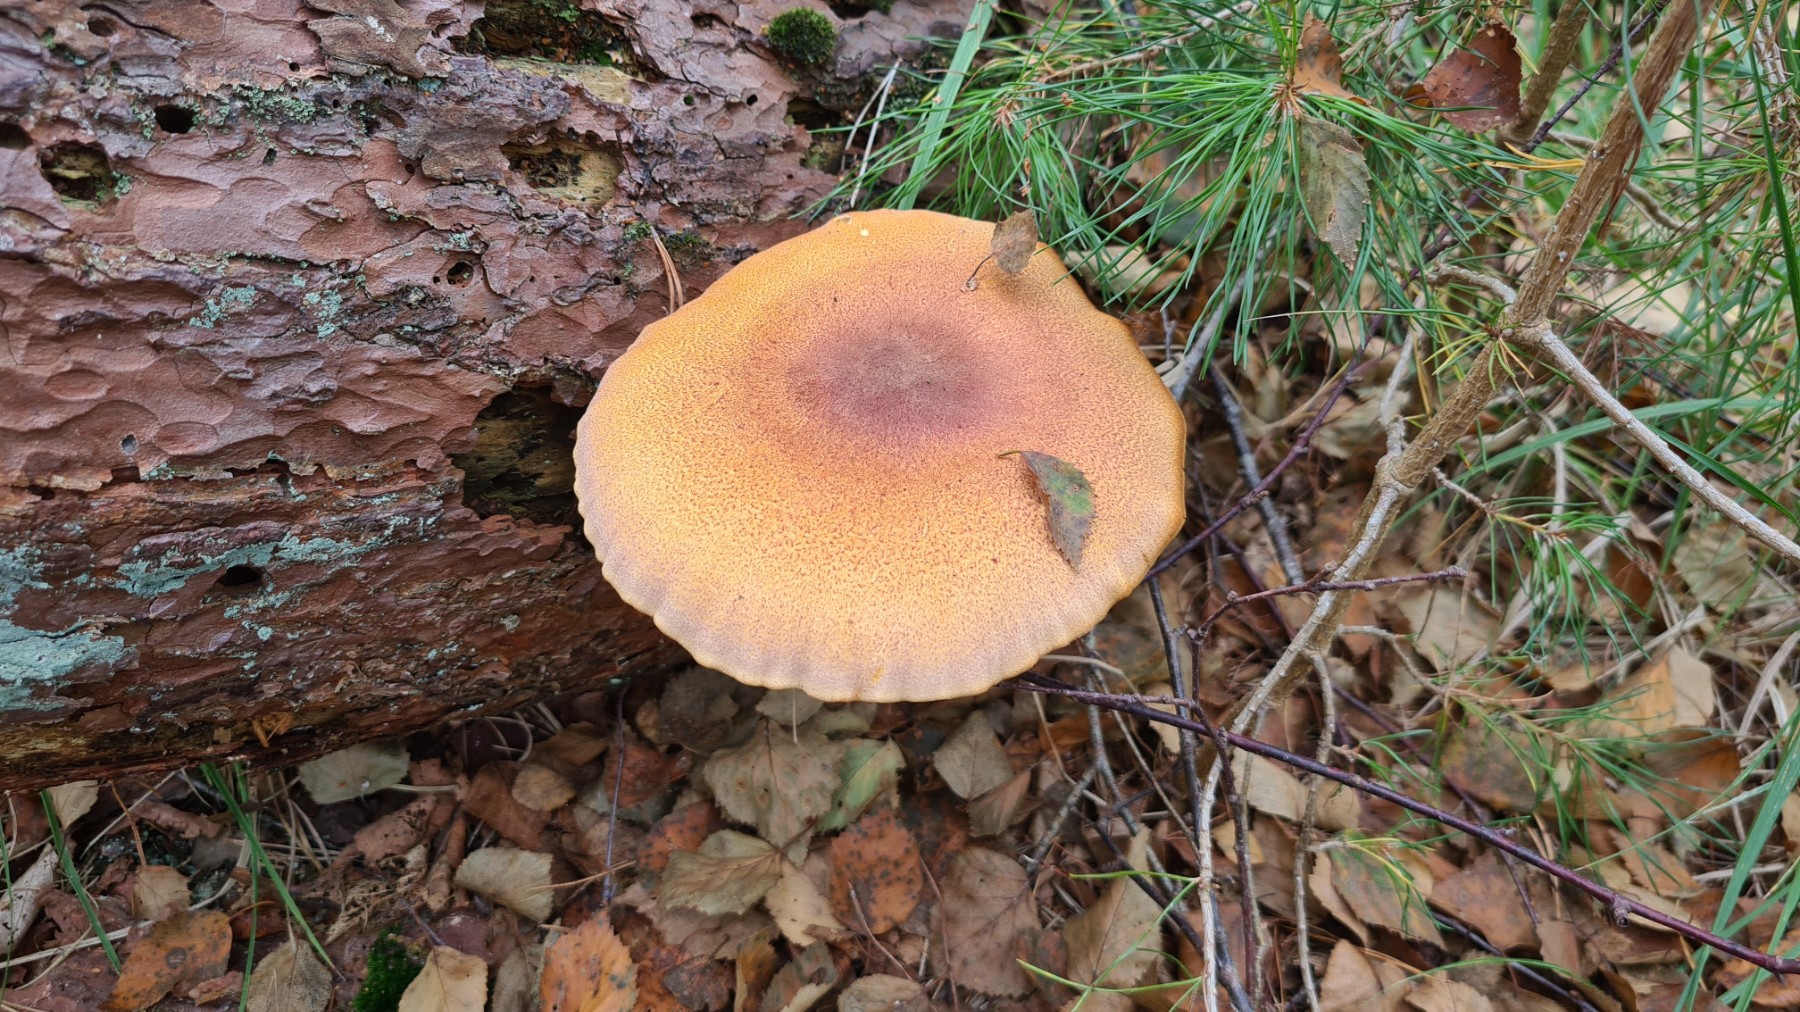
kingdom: Fungi
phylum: Basidiomycota
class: Agaricomycetes
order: Agaricales
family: Tricholomataceae
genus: Tricholomopsis
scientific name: Tricholomopsis rutilans
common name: purpur-væbnerhat
